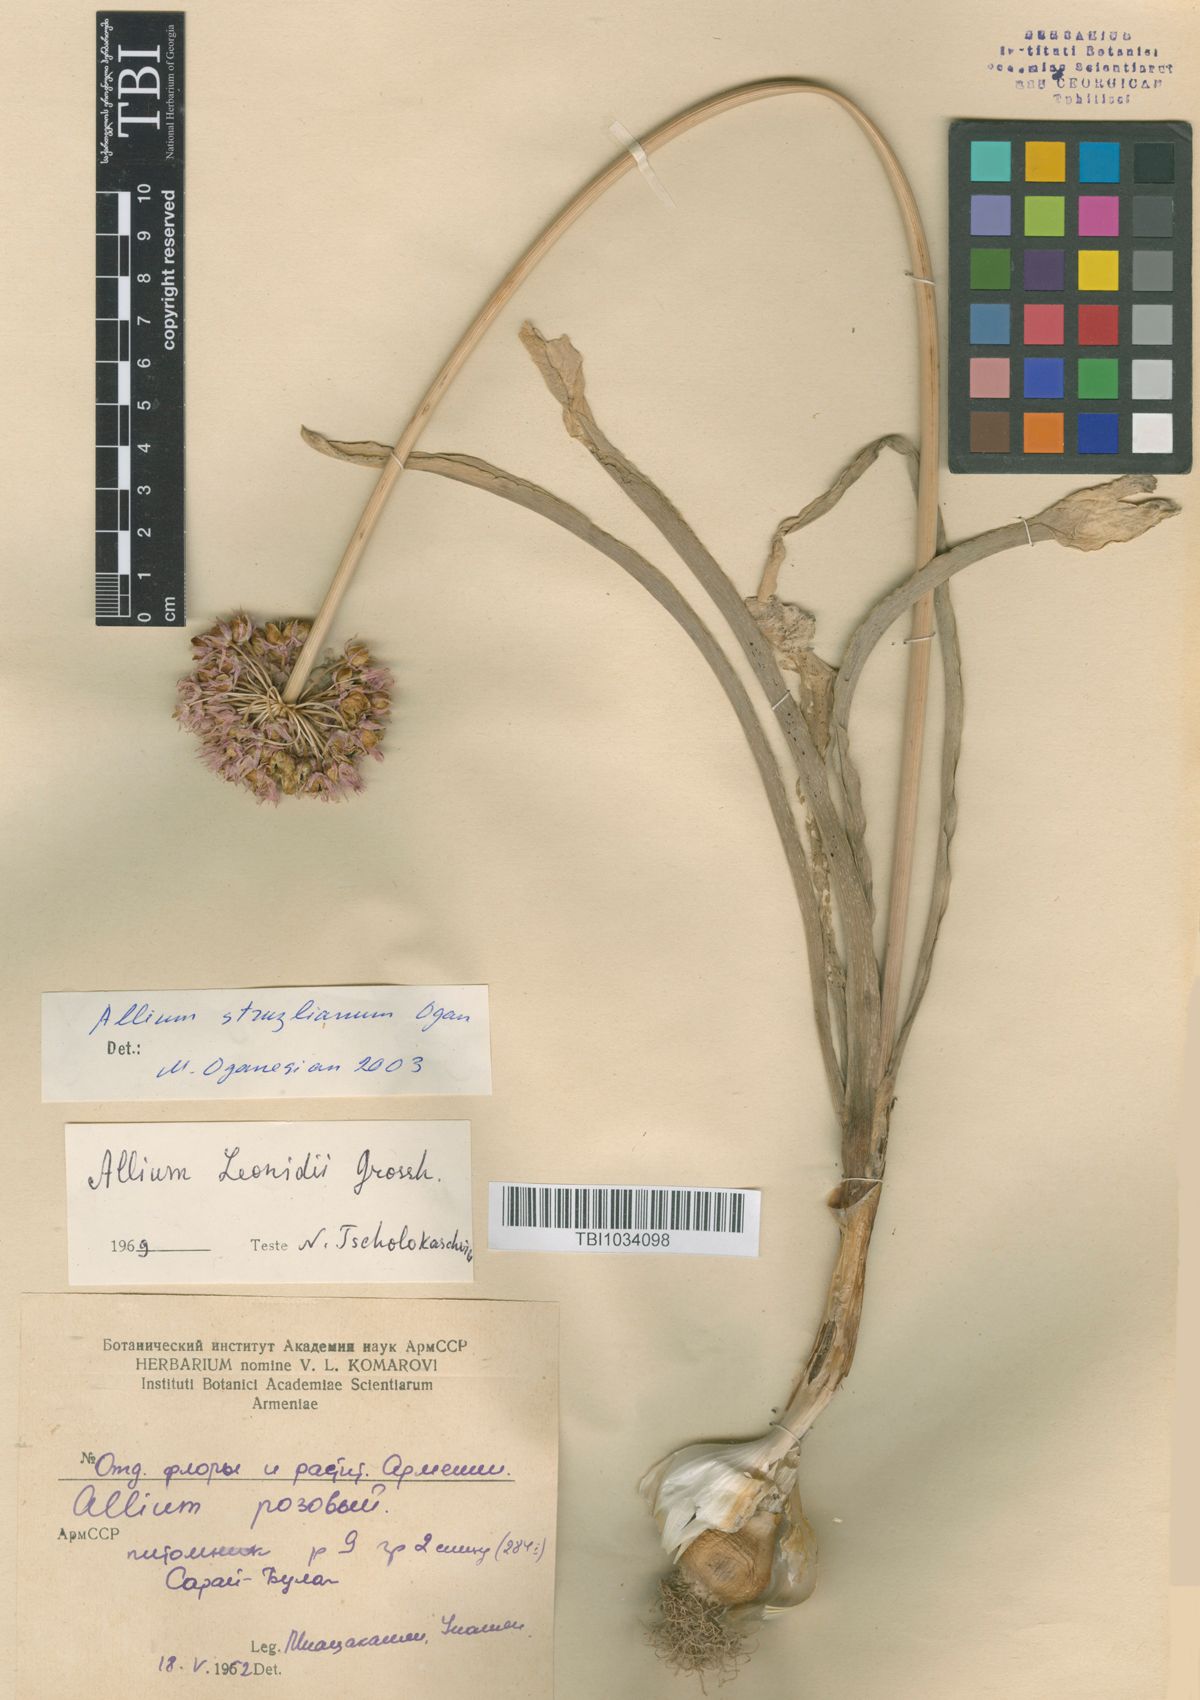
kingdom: Plantae
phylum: Tracheophyta
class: Liliopsida
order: Asparagales
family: Amaryllidaceae
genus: Allium
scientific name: Allium struzlianum
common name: Struzl's onion
